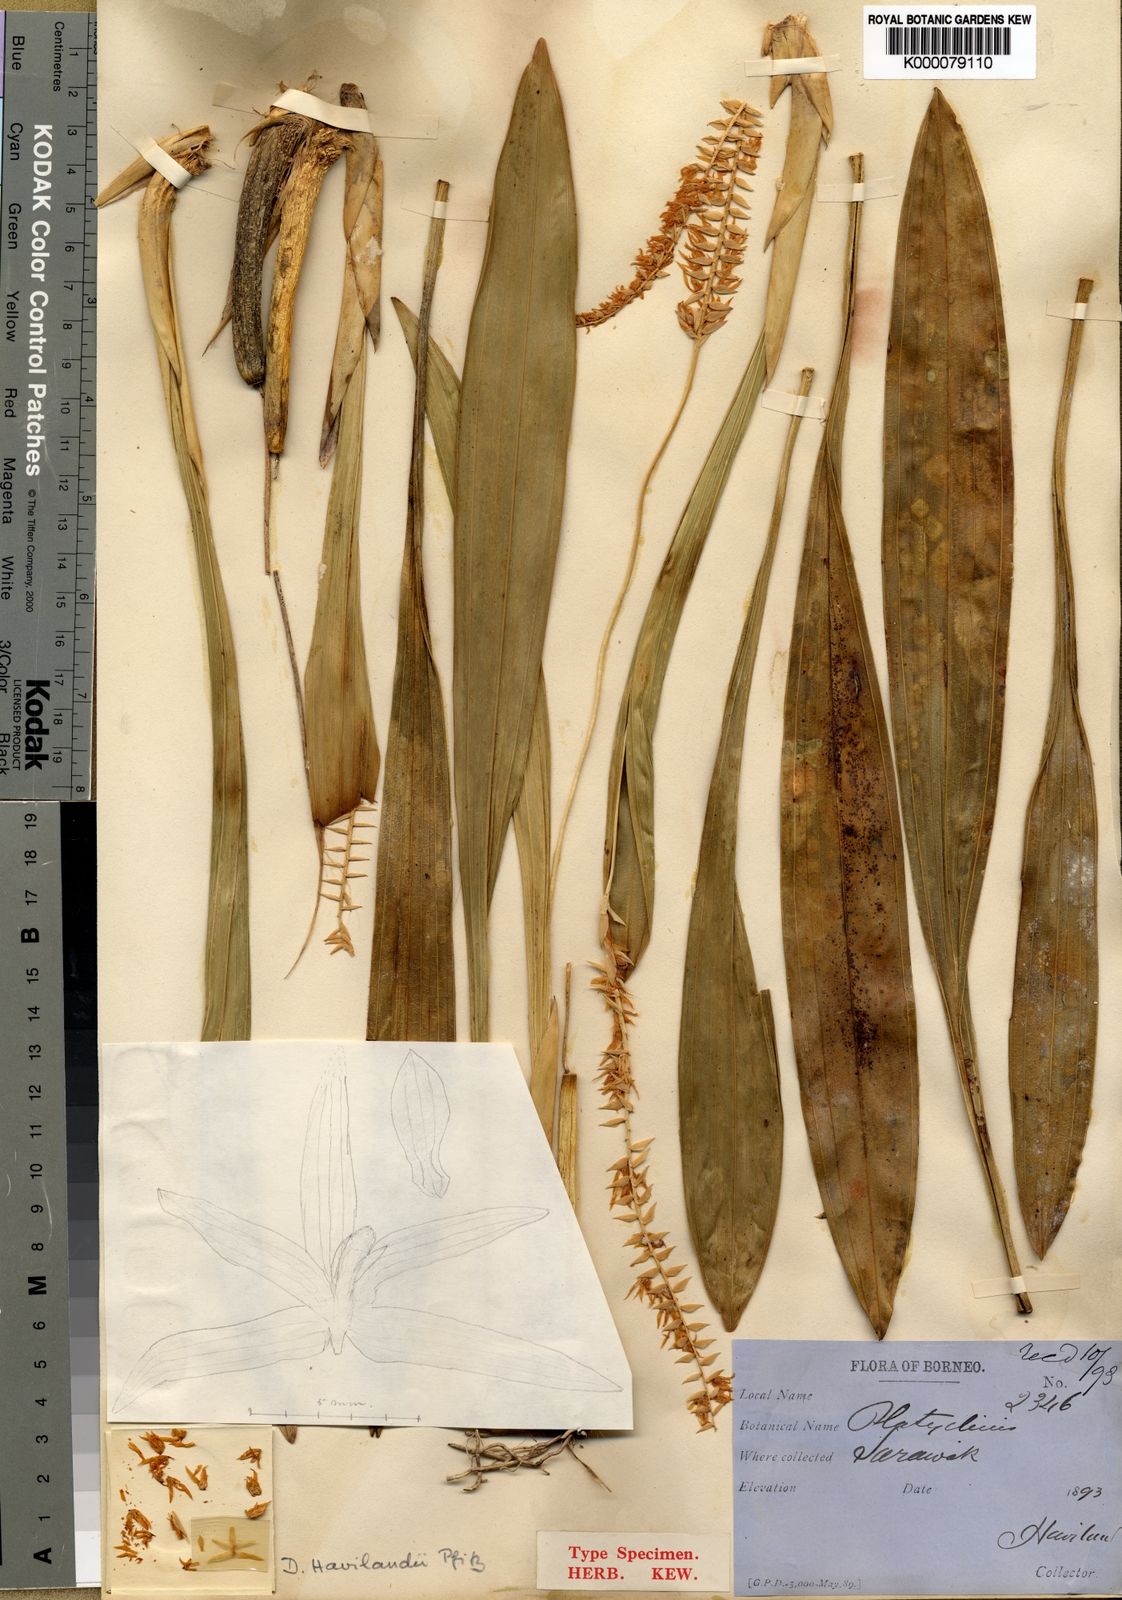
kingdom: Plantae
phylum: Tracheophyta
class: Liliopsida
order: Asparagales
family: Orchidaceae
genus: Coelogyne
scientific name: Coelogyne havilandii
